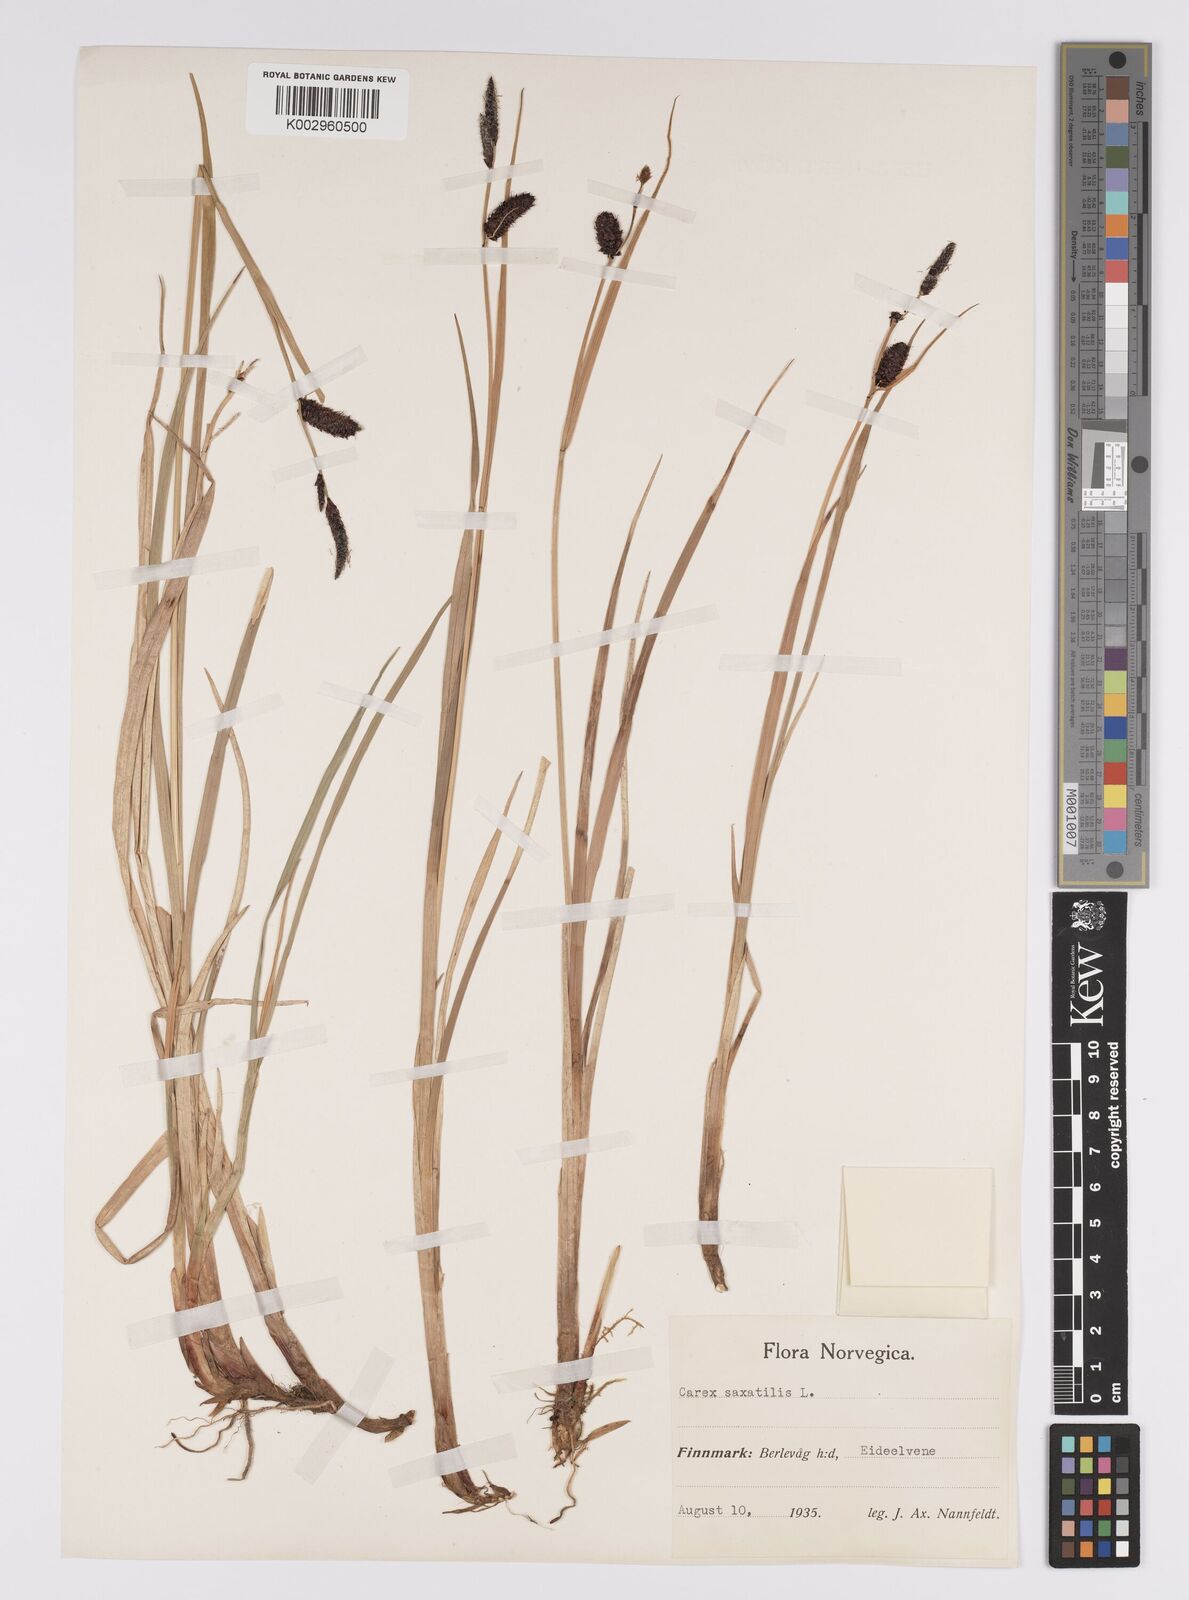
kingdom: Plantae
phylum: Tracheophyta
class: Liliopsida
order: Poales
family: Cyperaceae
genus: Carex
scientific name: Carex saxatilis
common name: Russet sedge
